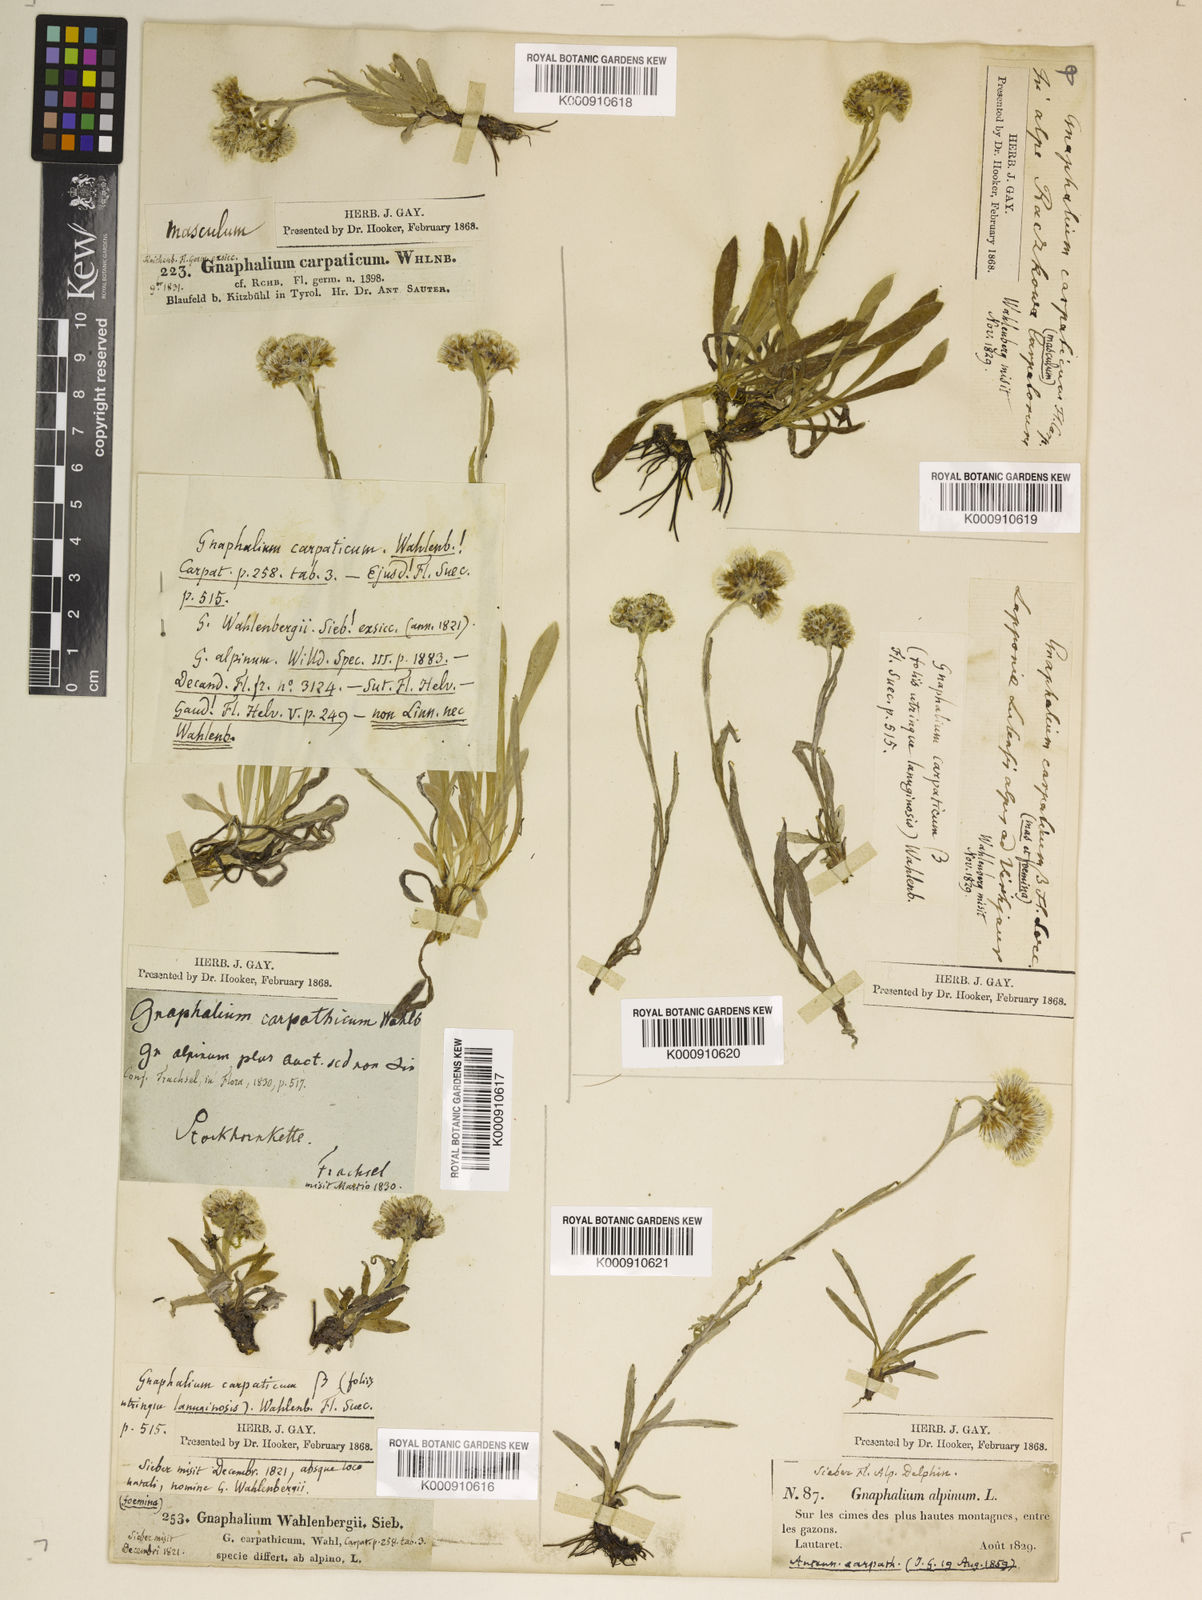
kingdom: Plantae
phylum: Tracheophyta
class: Magnoliopsida
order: Asterales
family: Asteraceae
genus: Antennaria
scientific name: Antennaria
